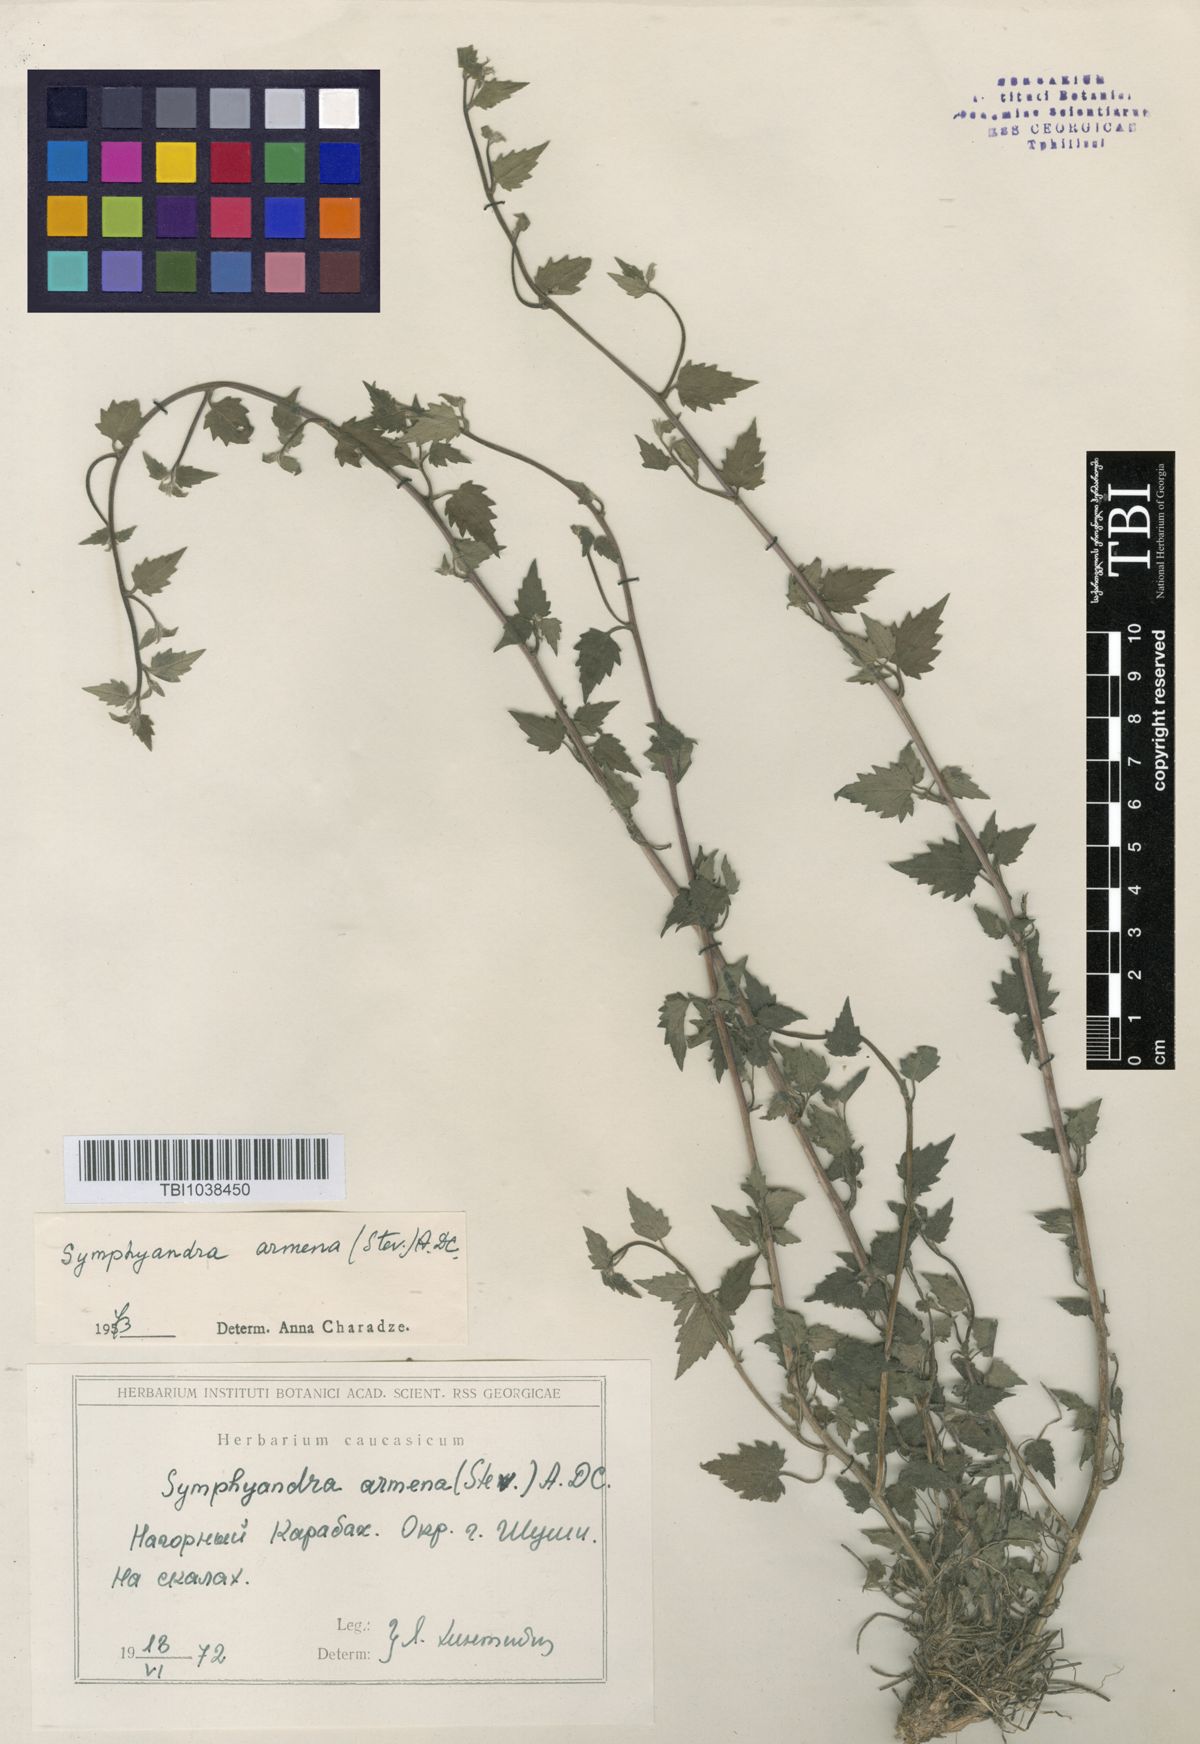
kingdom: Plantae
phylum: Tracheophyta
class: Magnoliopsida
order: Asterales
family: Campanulaceae
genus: Campanula
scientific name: Campanula armena
